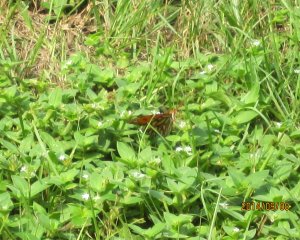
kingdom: Animalia
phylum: Arthropoda
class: Insecta
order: Lepidoptera
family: Nymphalidae
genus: Dione
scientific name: Dione vanillae
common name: Gulf Fritillary
